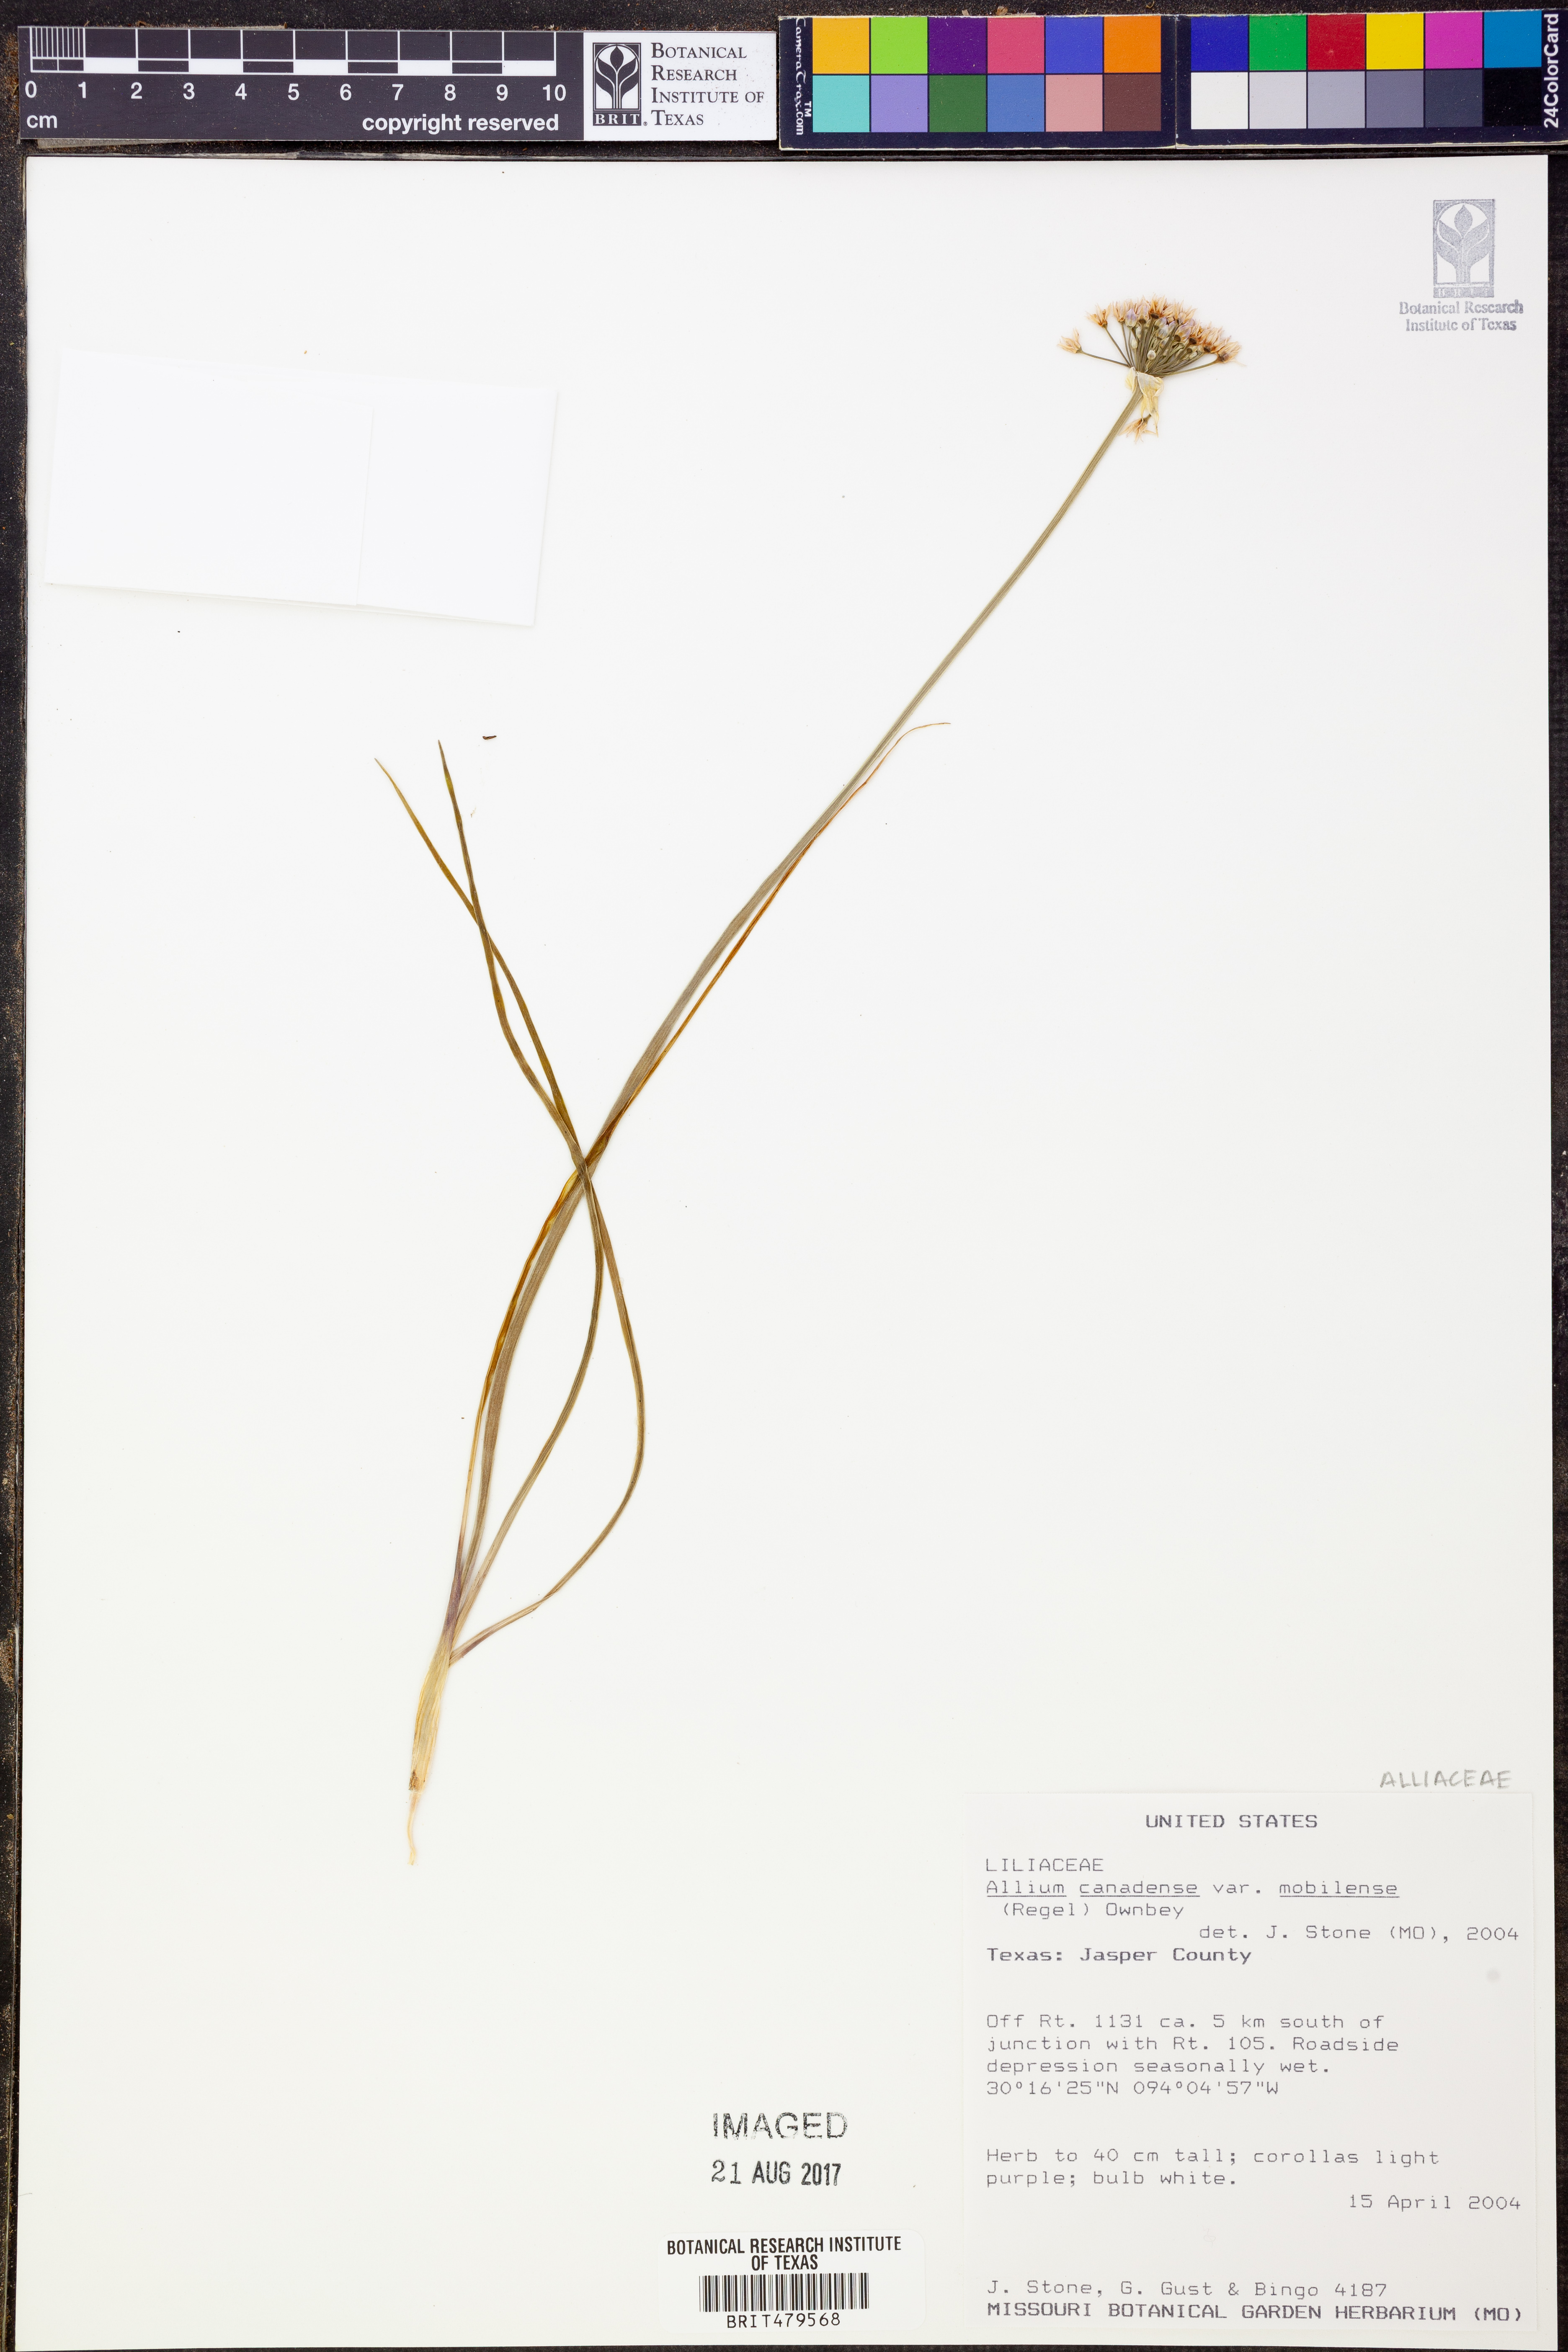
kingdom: Plantae
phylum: Tracheophyta
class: Liliopsida
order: Asparagales
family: Amaryllidaceae
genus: Allium
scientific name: Allium canadense
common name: Meadow garlic
